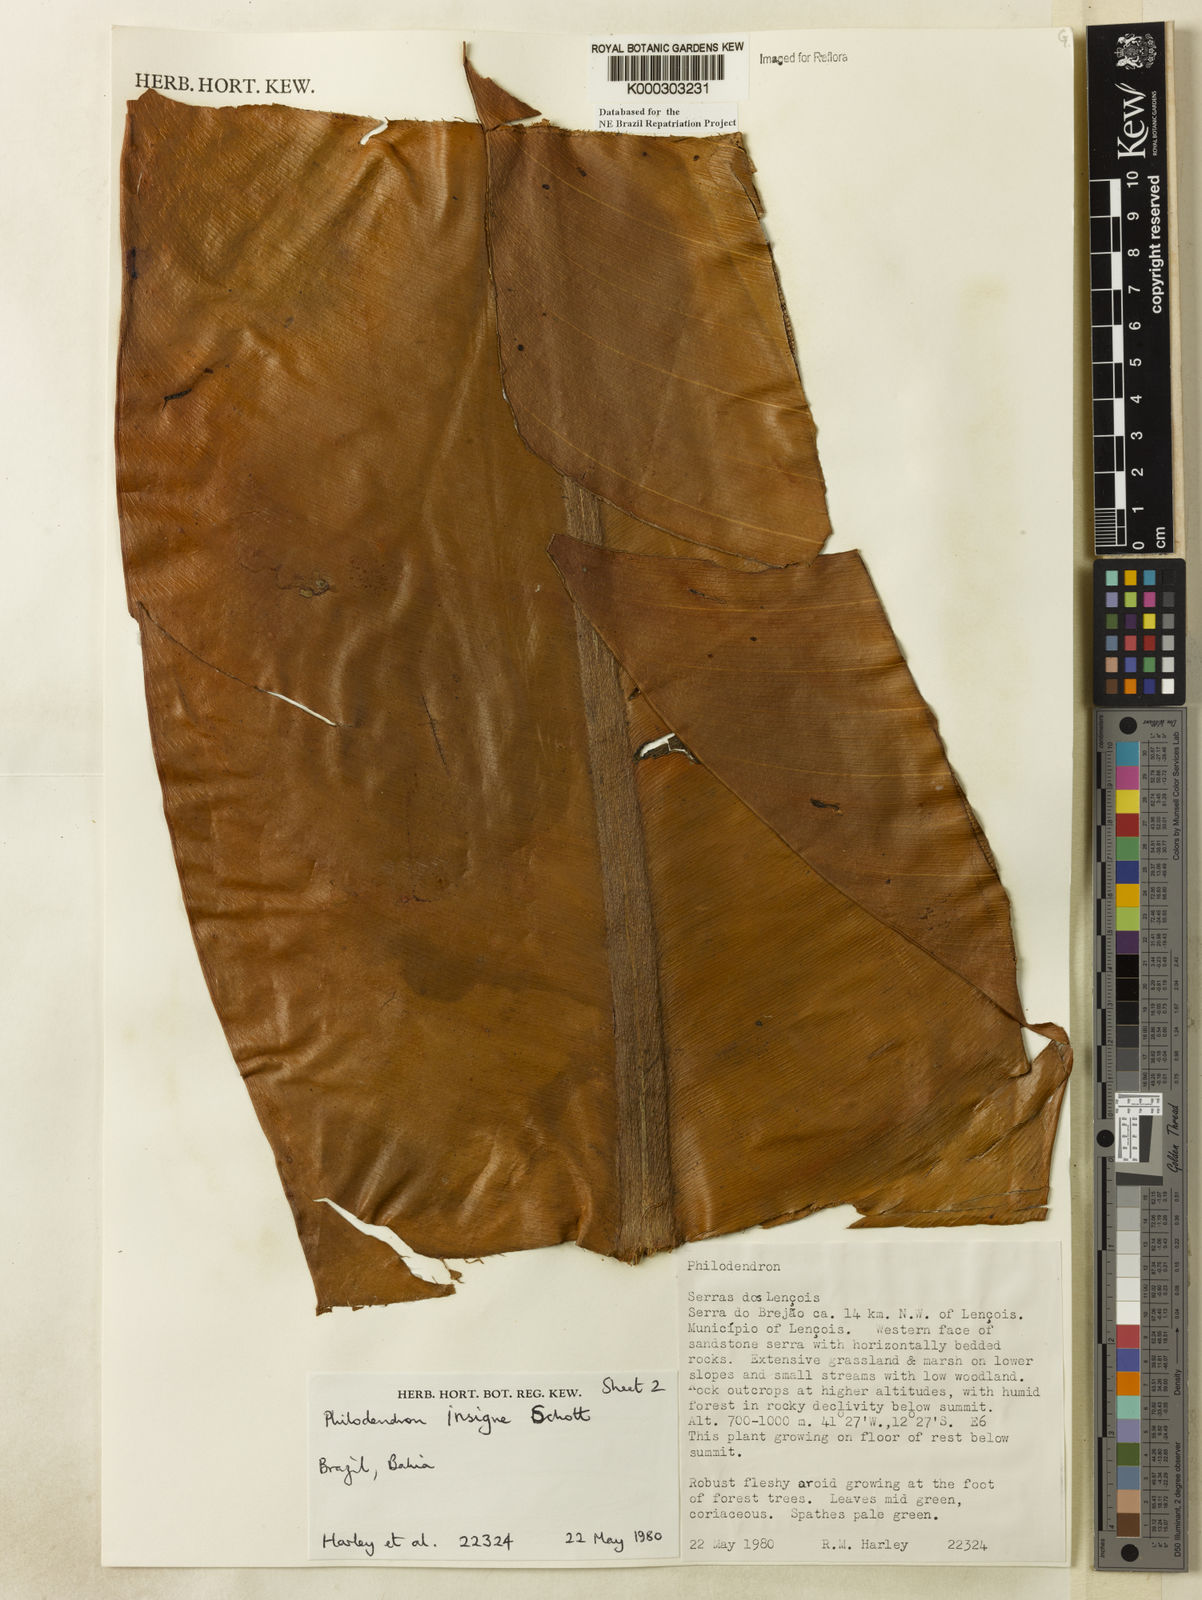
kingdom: Plantae
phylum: Tracheophyta
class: Liliopsida
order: Alismatales
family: Araceae
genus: Philodendron
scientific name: Philodendron insigne
